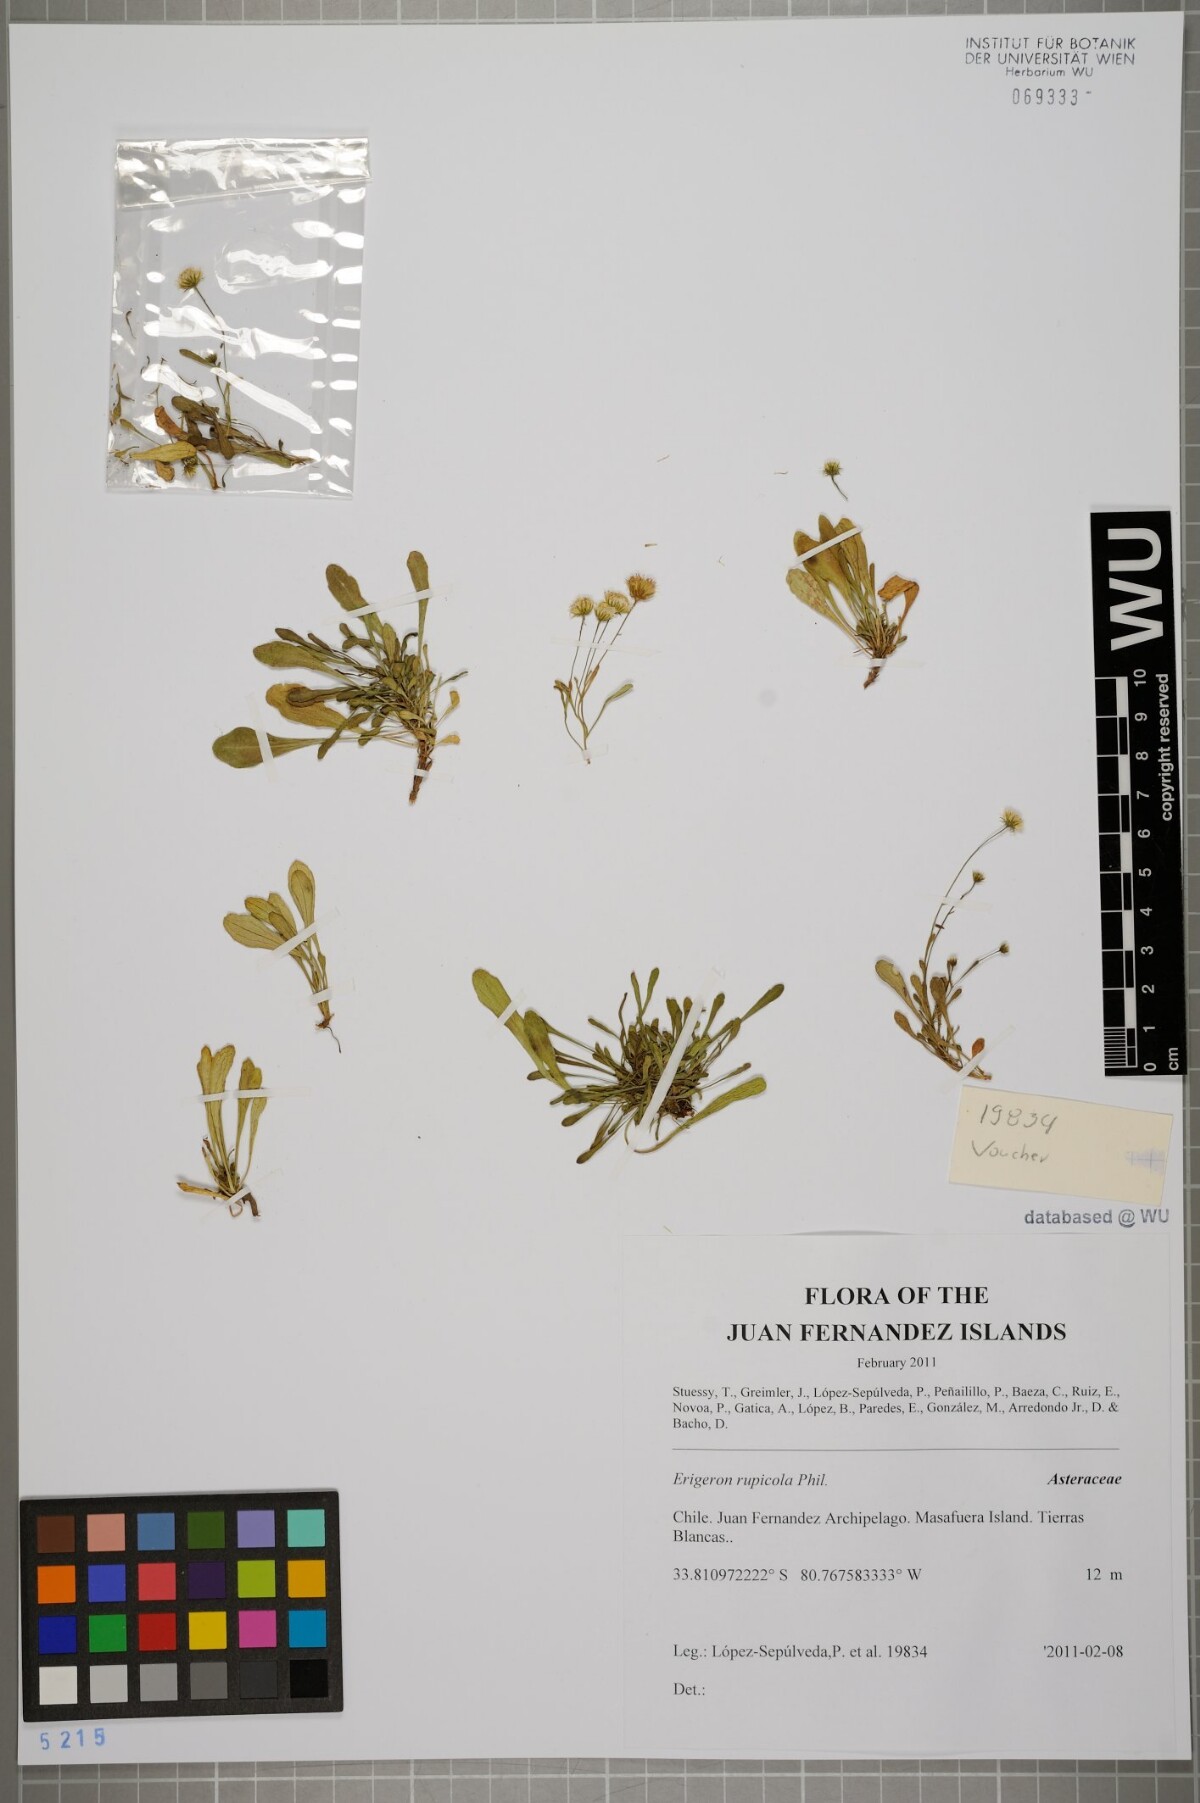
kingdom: Plantae
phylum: Tracheophyta
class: Magnoliopsida
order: Asterales
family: Asteraceae
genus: Erigeron
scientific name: Erigeron rupicola
